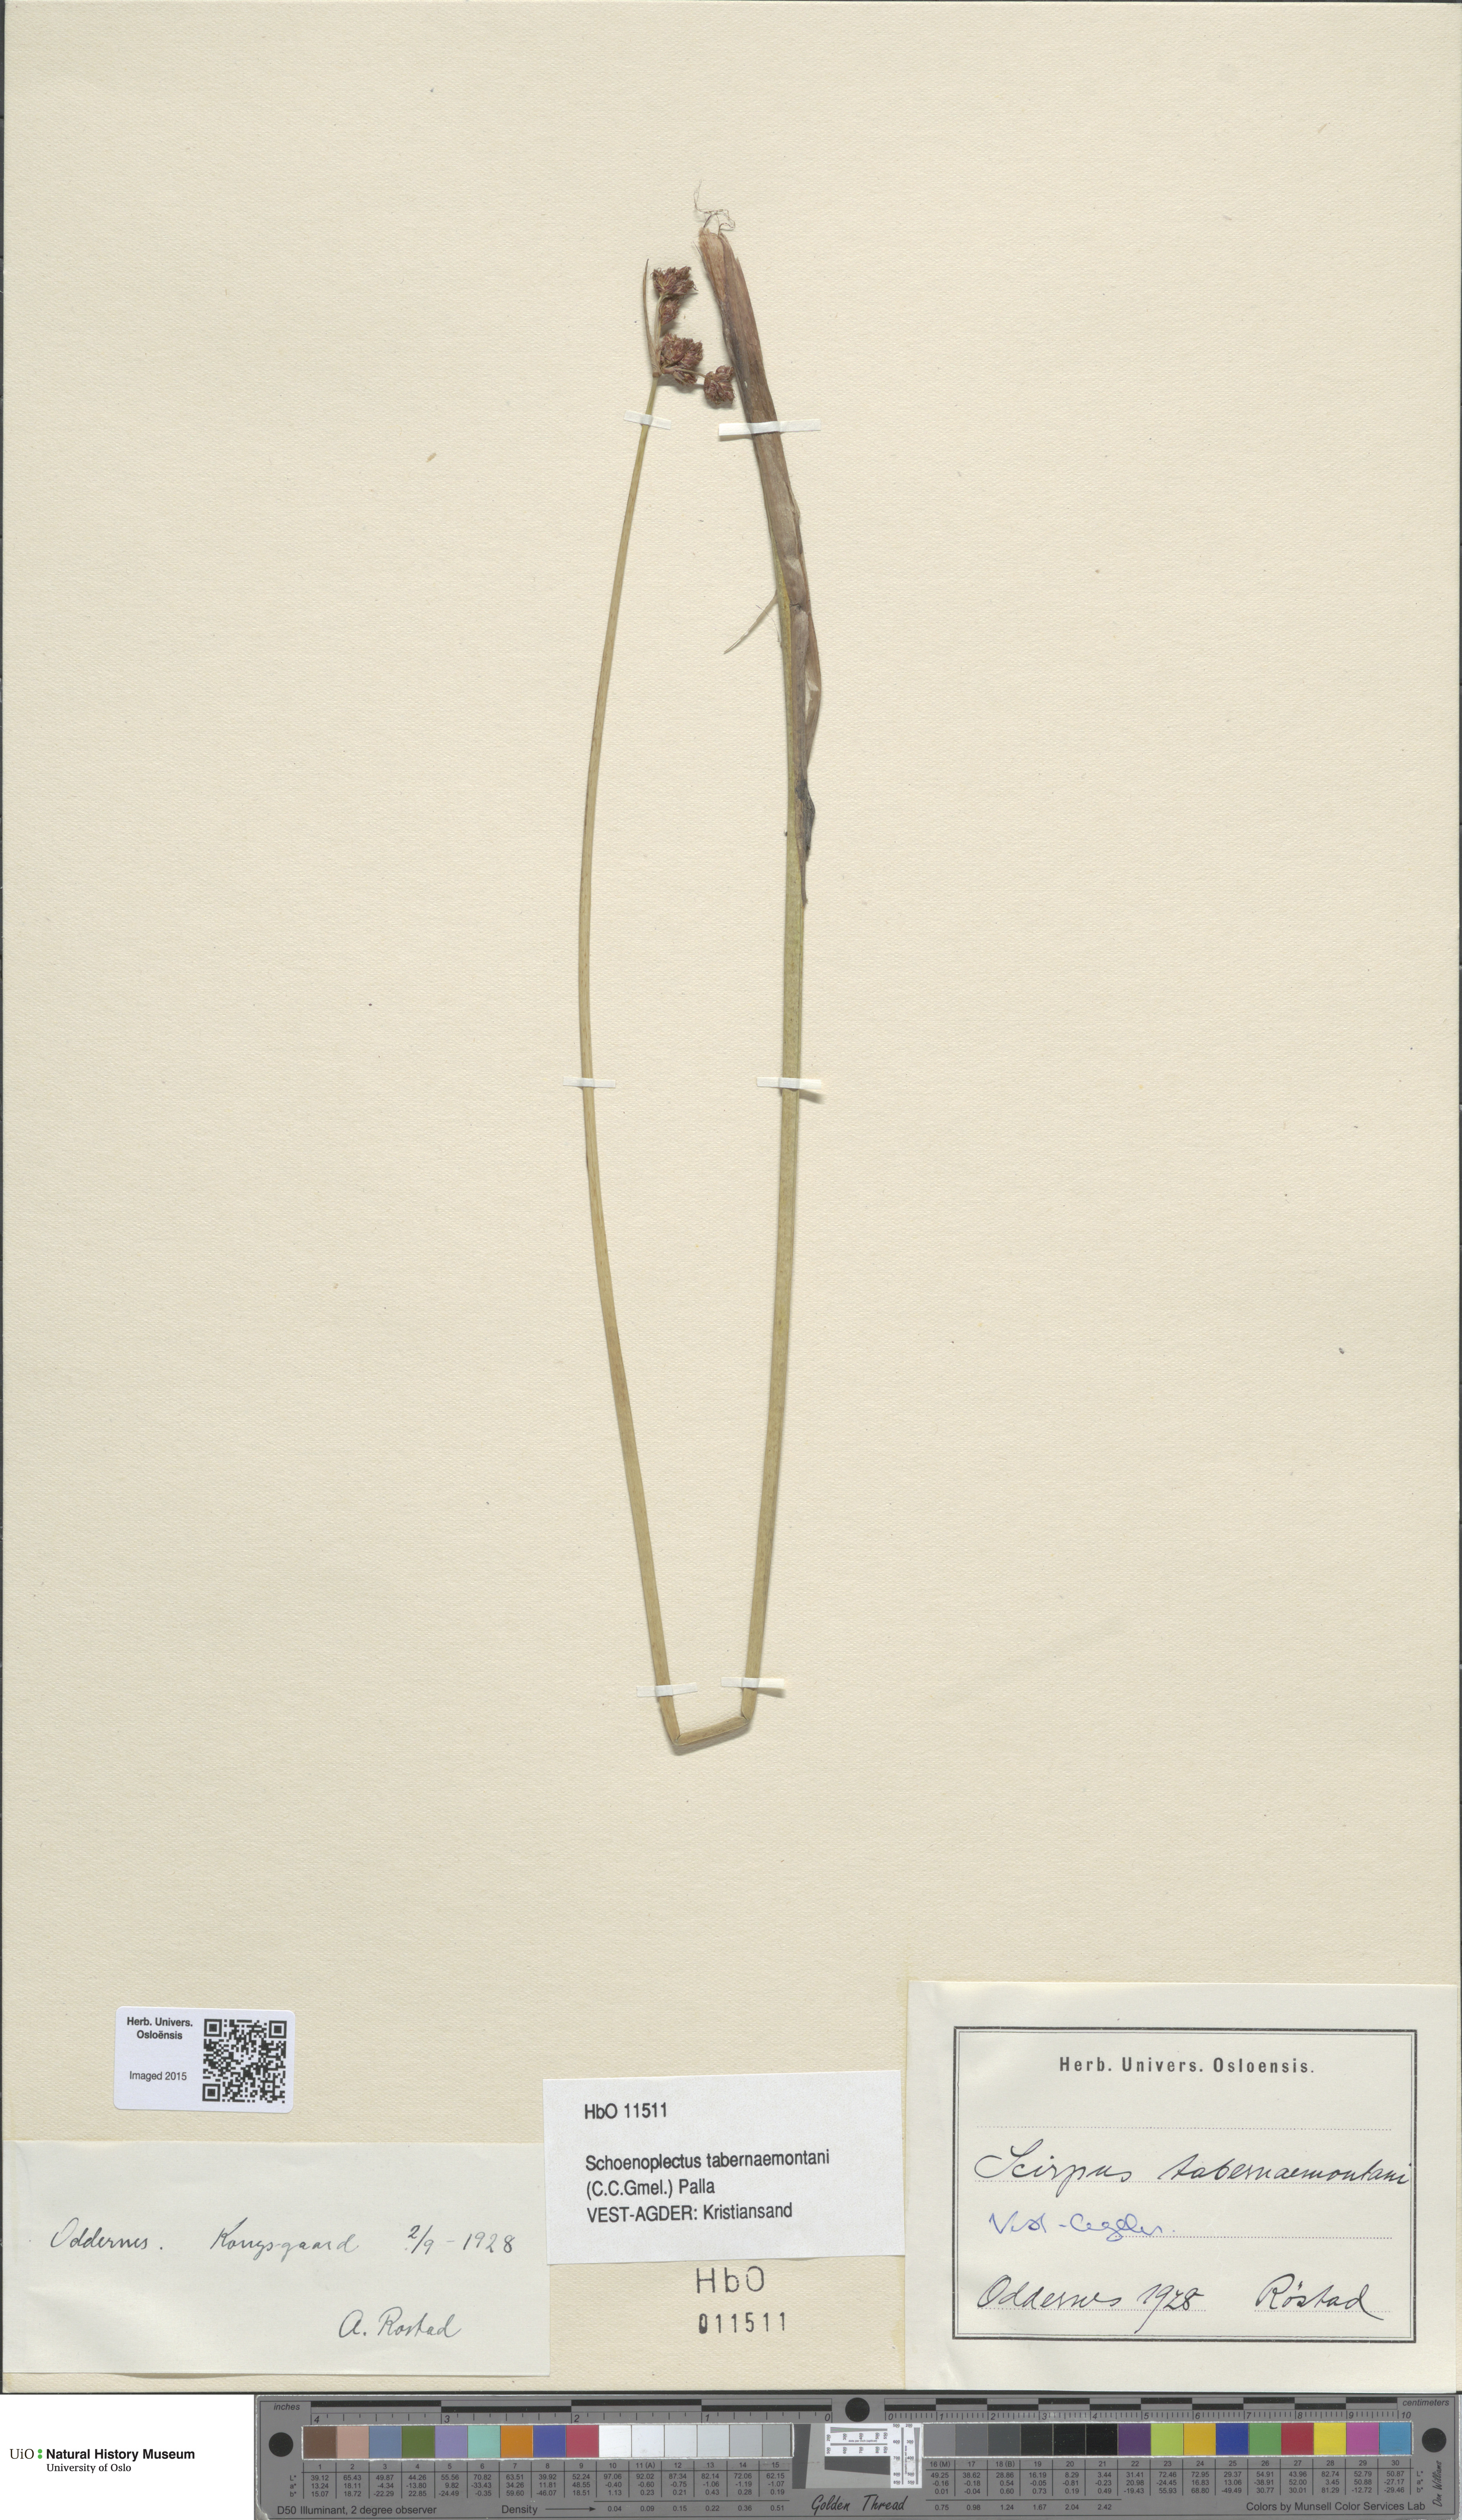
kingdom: Plantae
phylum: Tracheophyta
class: Liliopsida
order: Poales
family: Cyperaceae
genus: Schoenoplectus
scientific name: Schoenoplectus tabernaemontani
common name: Grey club-rush
